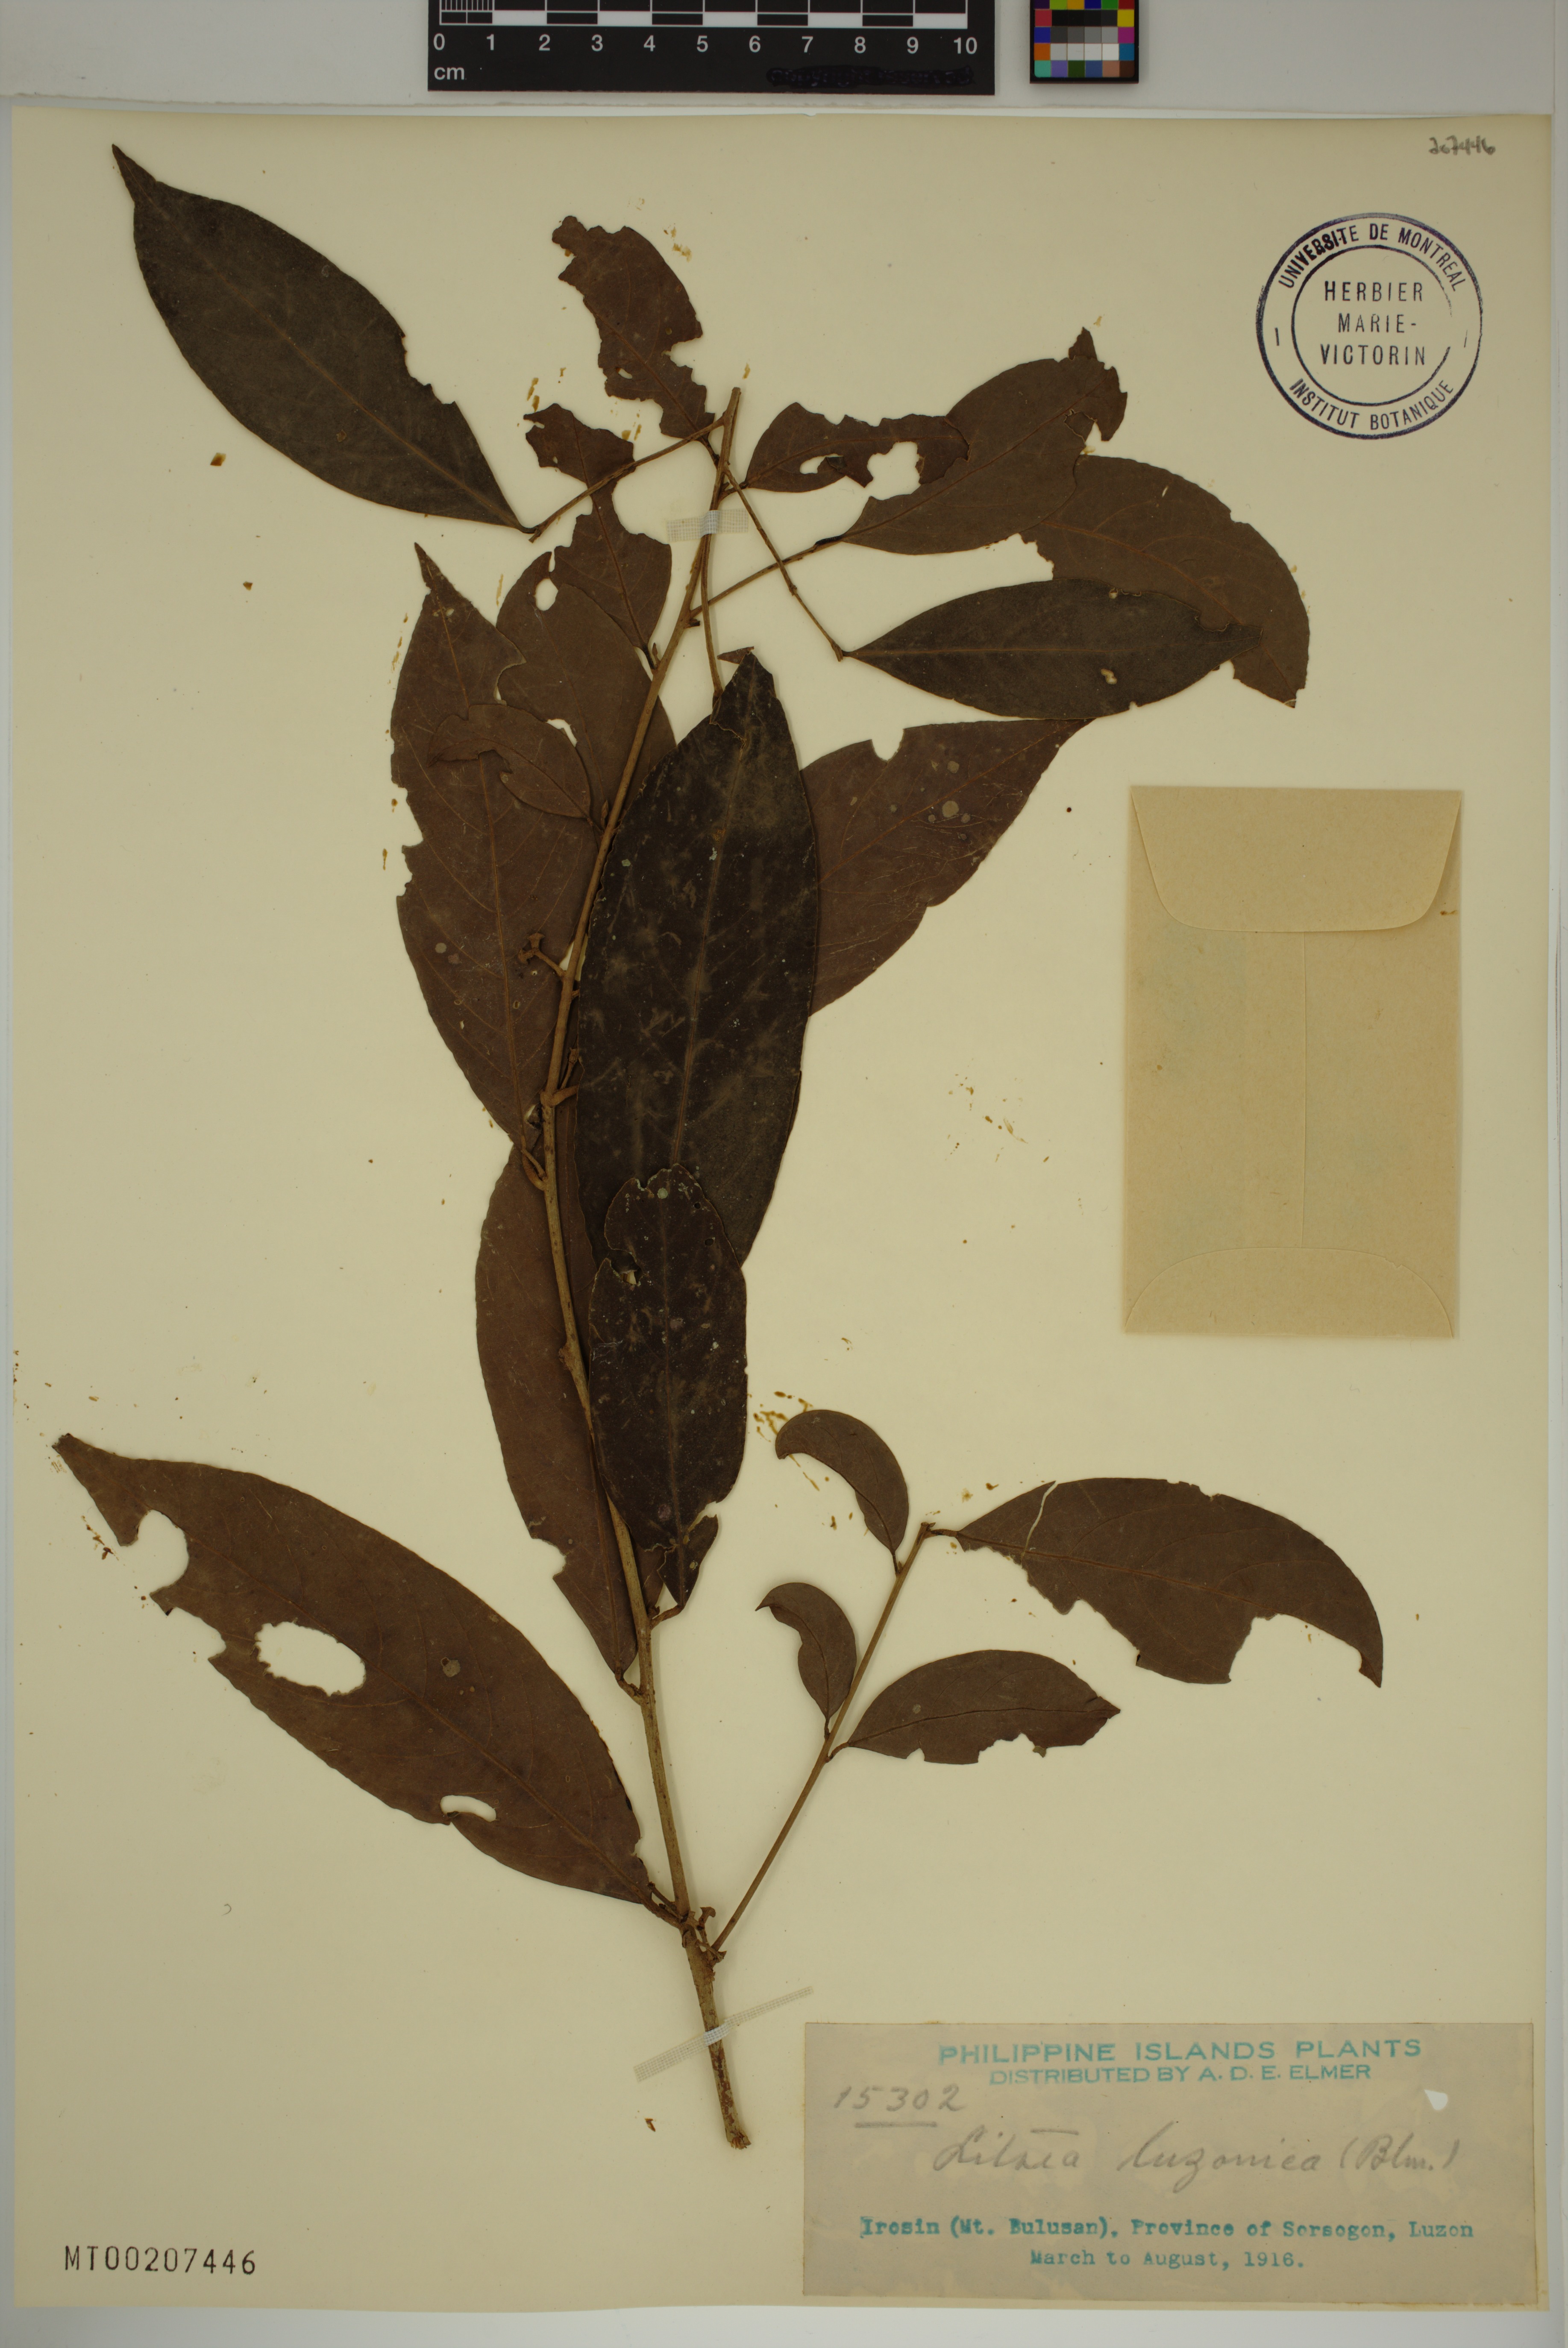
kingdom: Plantae
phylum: Tracheophyta
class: Magnoliopsida
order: Laurales
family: Lauraceae
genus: Litsea
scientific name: Litsea luzonica
